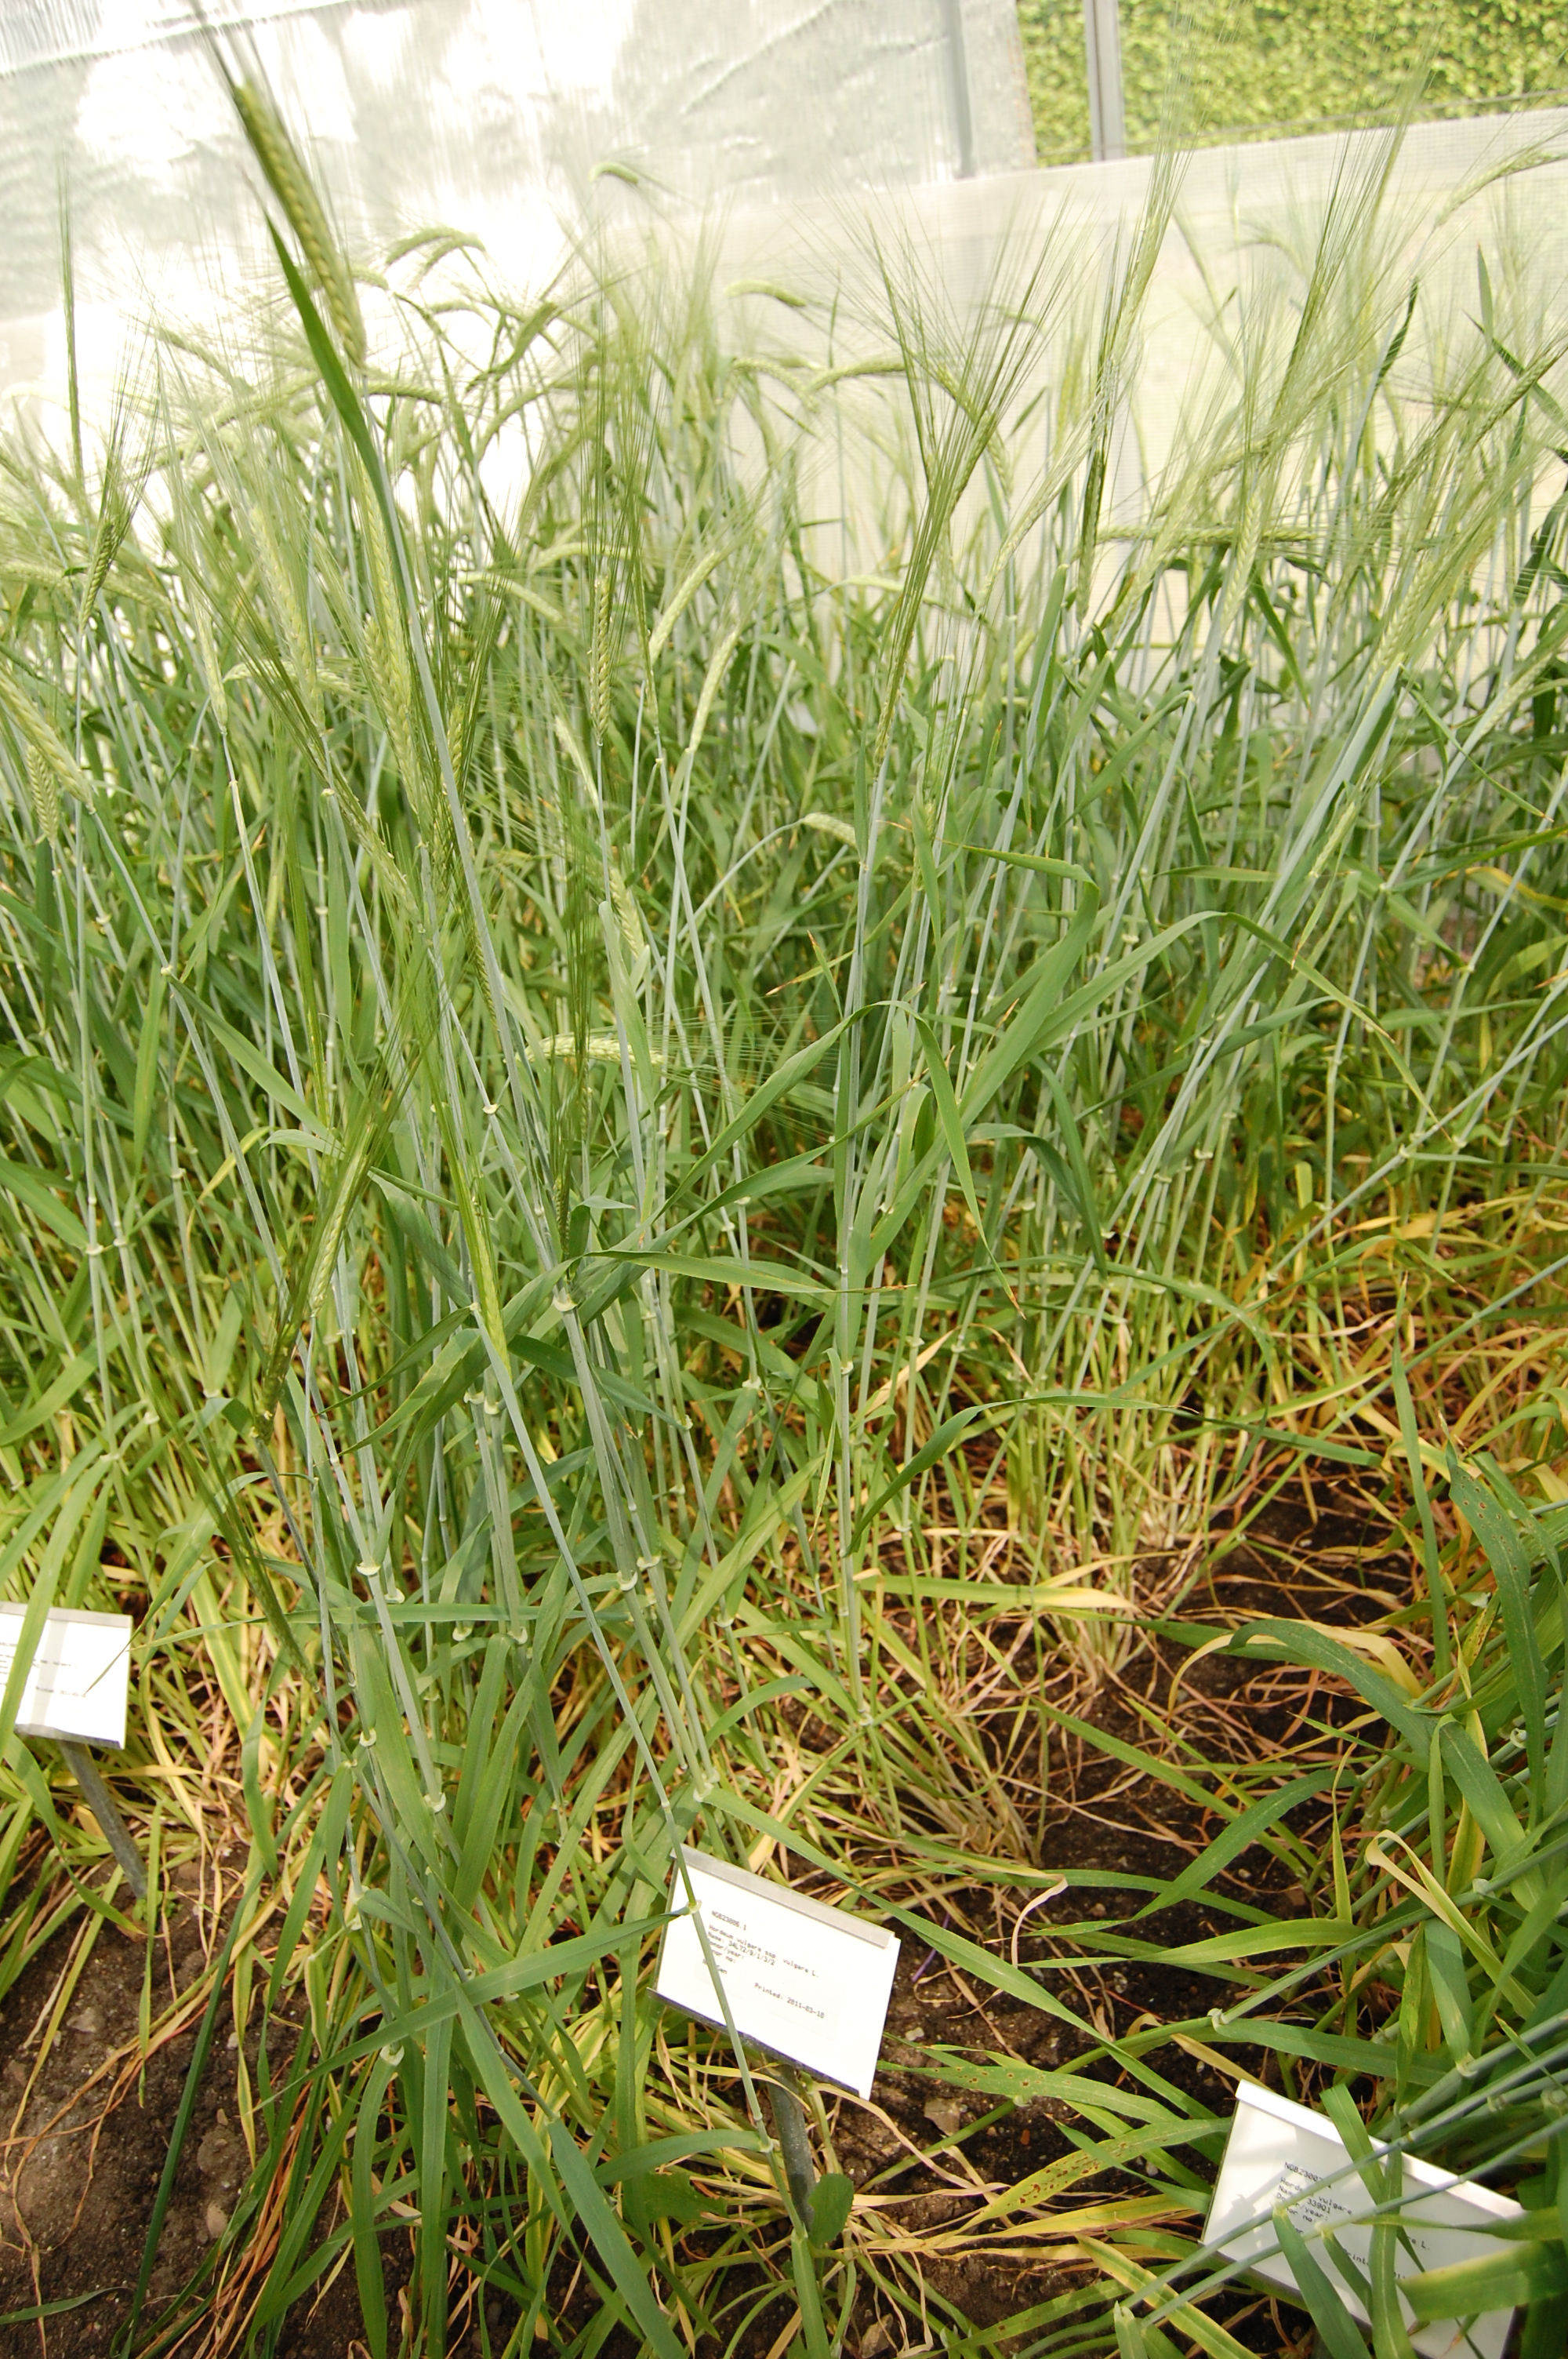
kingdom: Plantae
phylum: Tracheophyta
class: Liliopsida
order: Poales
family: Poaceae
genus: Hordeum
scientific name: Hordeum vulgare
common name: Common barley
